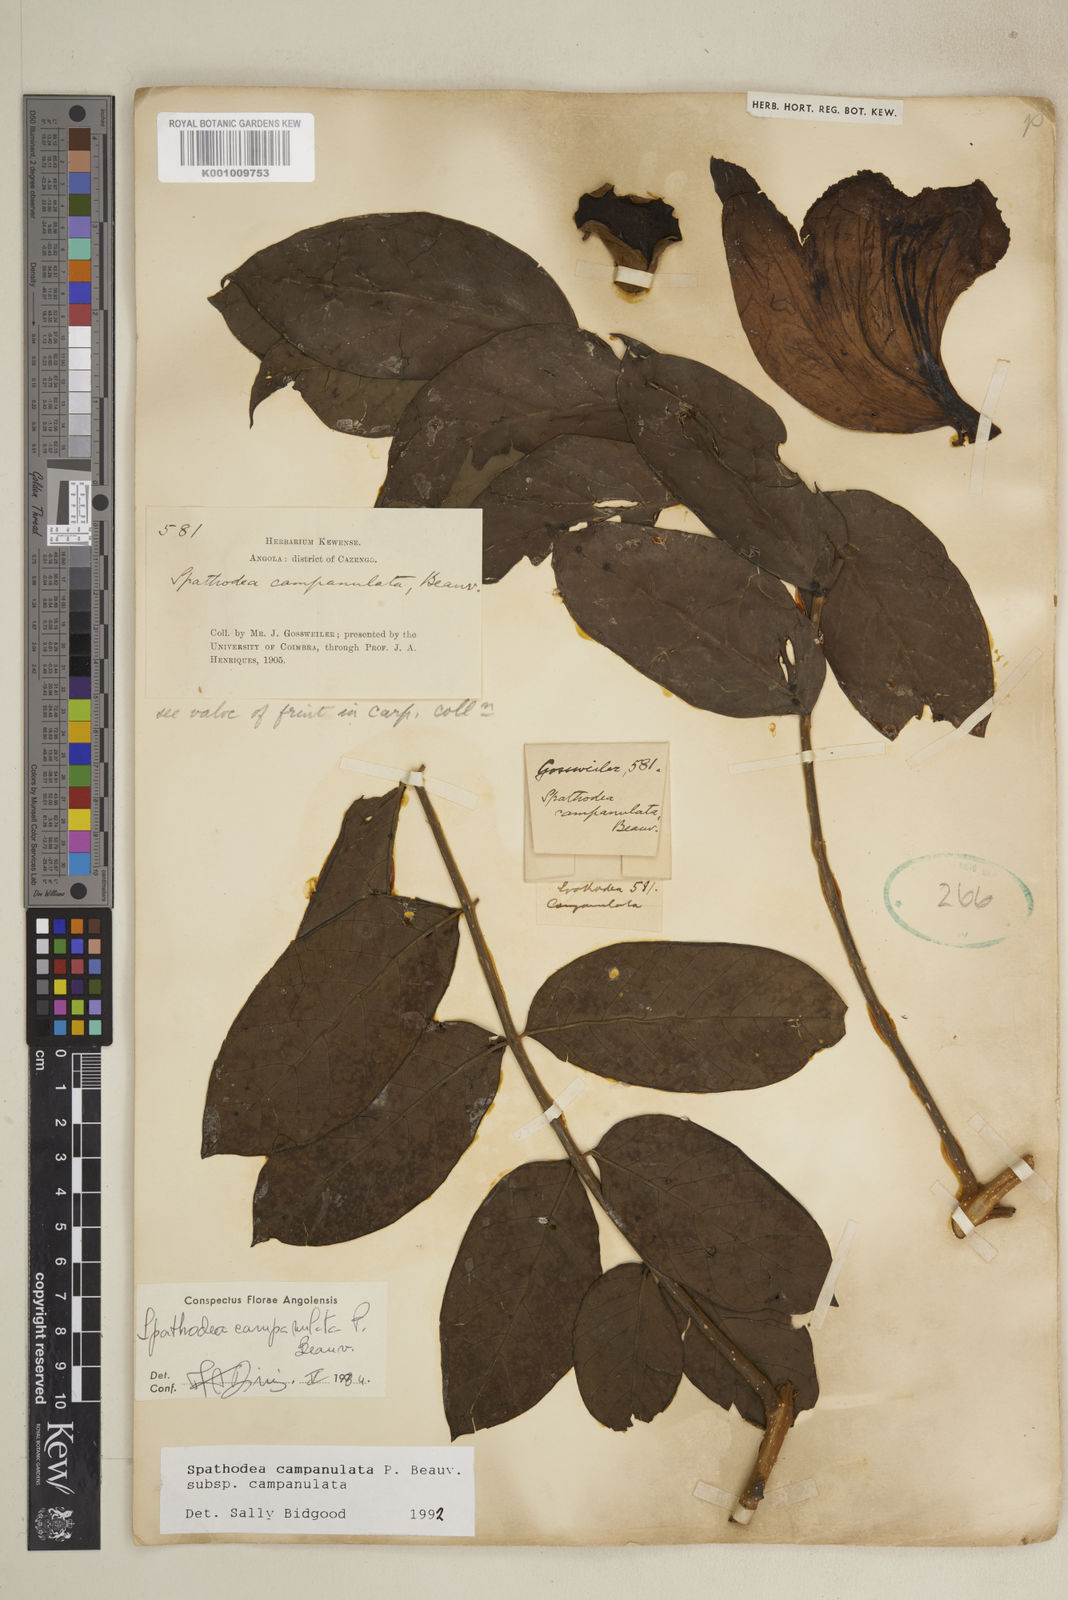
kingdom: Plantae
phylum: Tracheophyta
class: Magnoliopsida
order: Lamiales
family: Bignoniaceae
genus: Spathodea
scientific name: Spathodea campanulata
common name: African tuliptree
